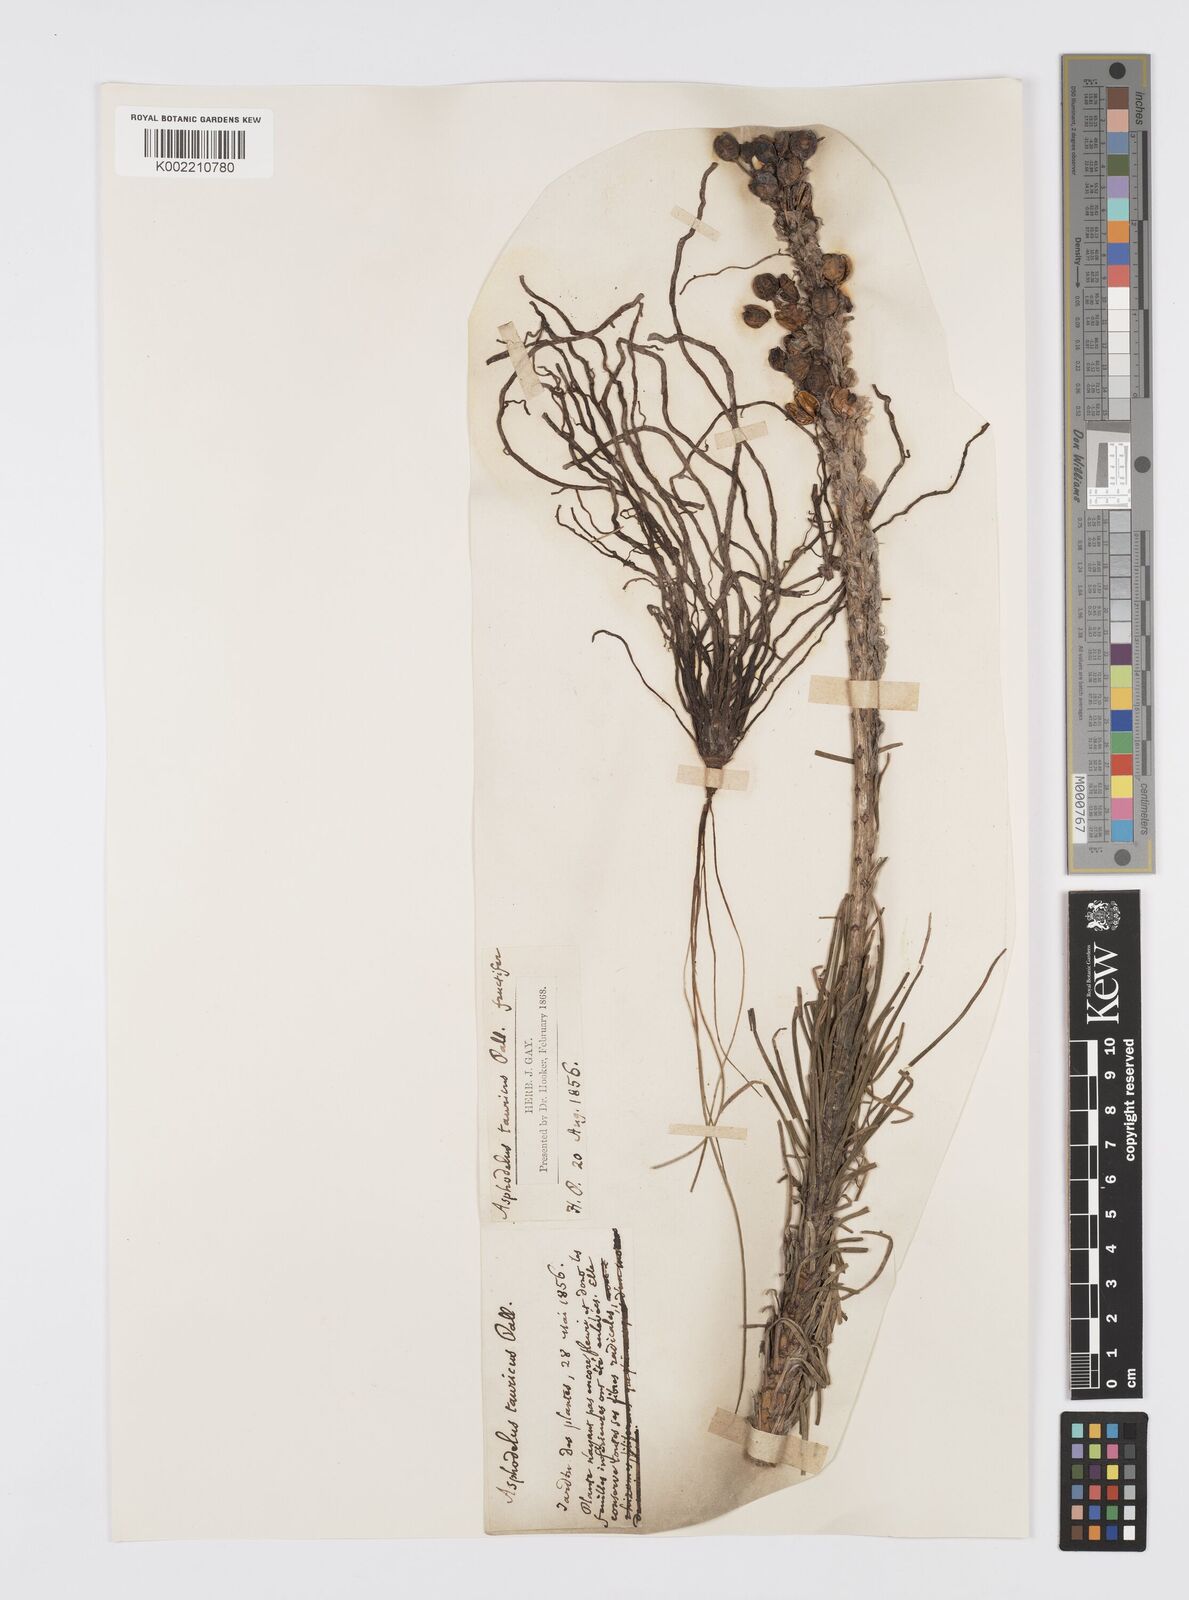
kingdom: Plantae
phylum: Tracheophyta
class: Liliopsida
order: Asparagales
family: Asphodelaceae
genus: Asphodeline
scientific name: Asphodeline taurica
